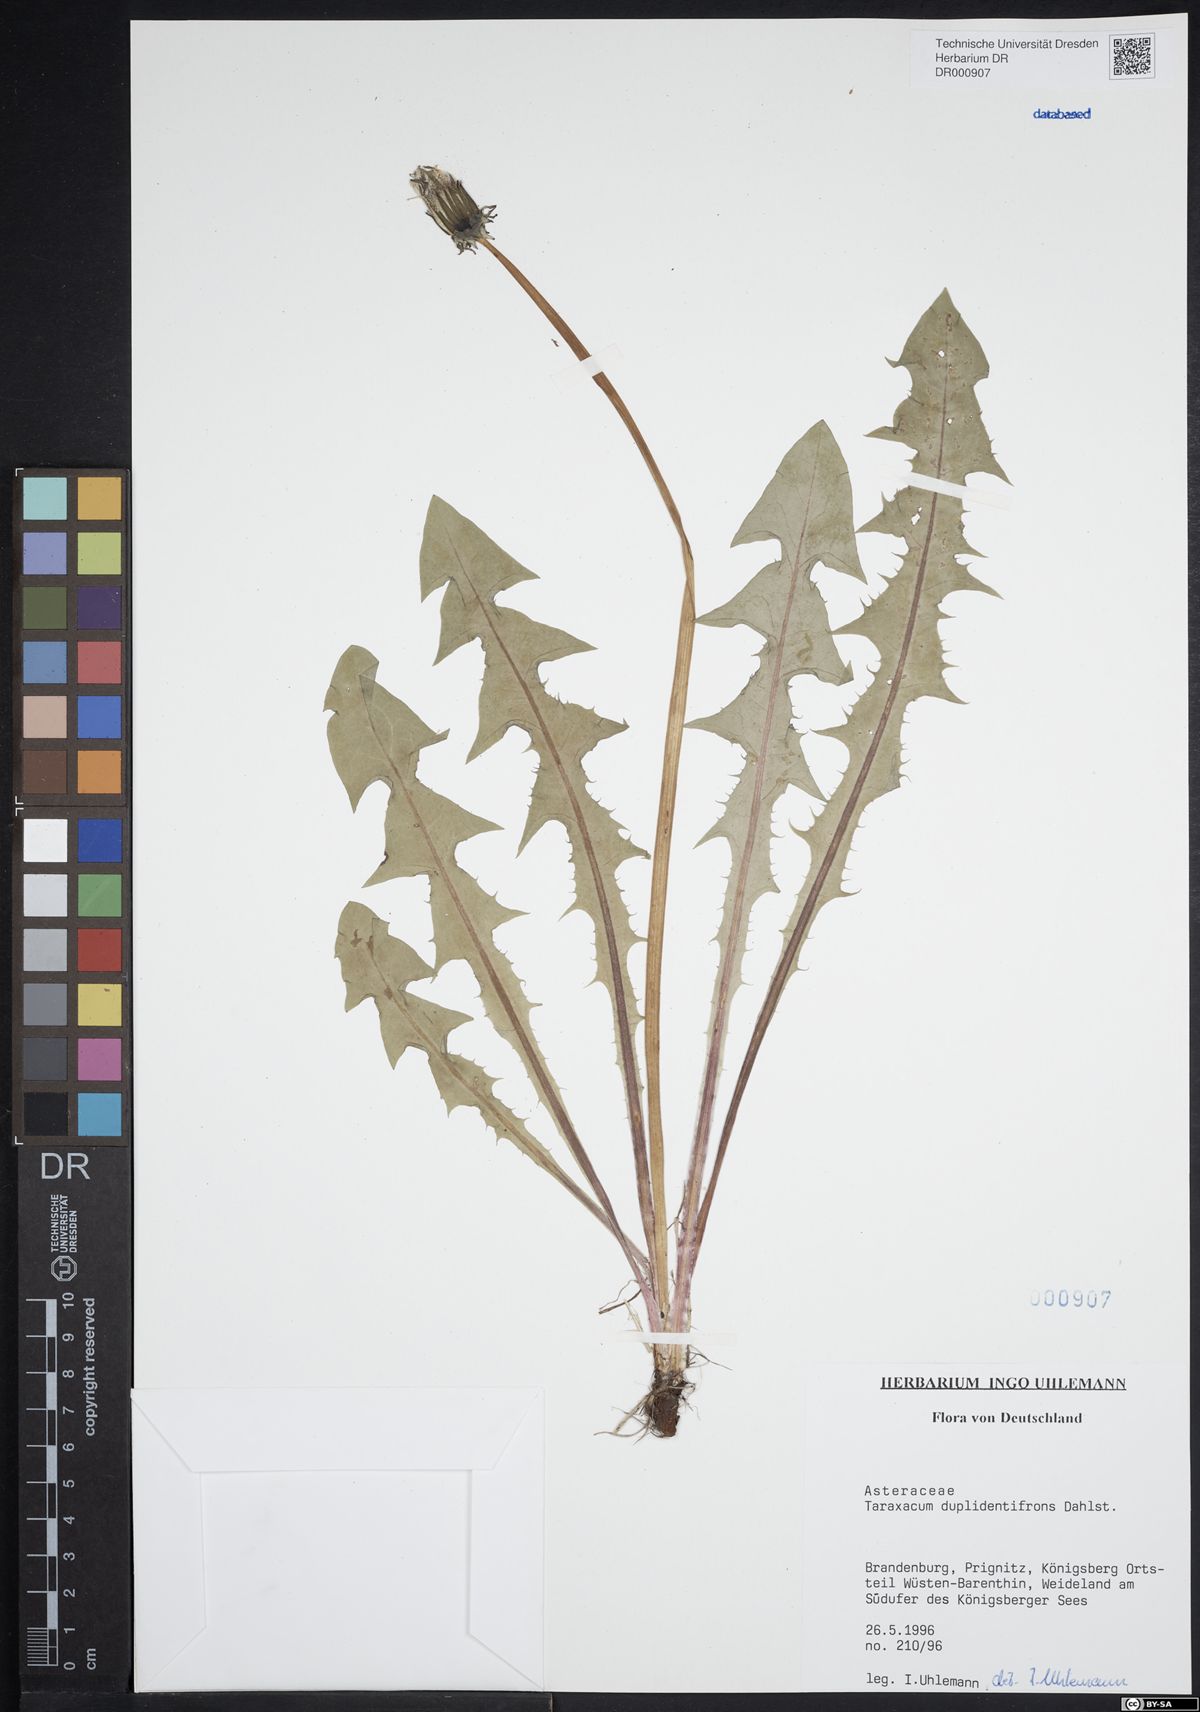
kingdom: Plantae
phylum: Tracheophyta
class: Magnoliopsida
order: Asterales
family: Asteraceae
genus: Taraxacum
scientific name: Taraxacum duplidentifrons
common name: Double-toothed dandelion
